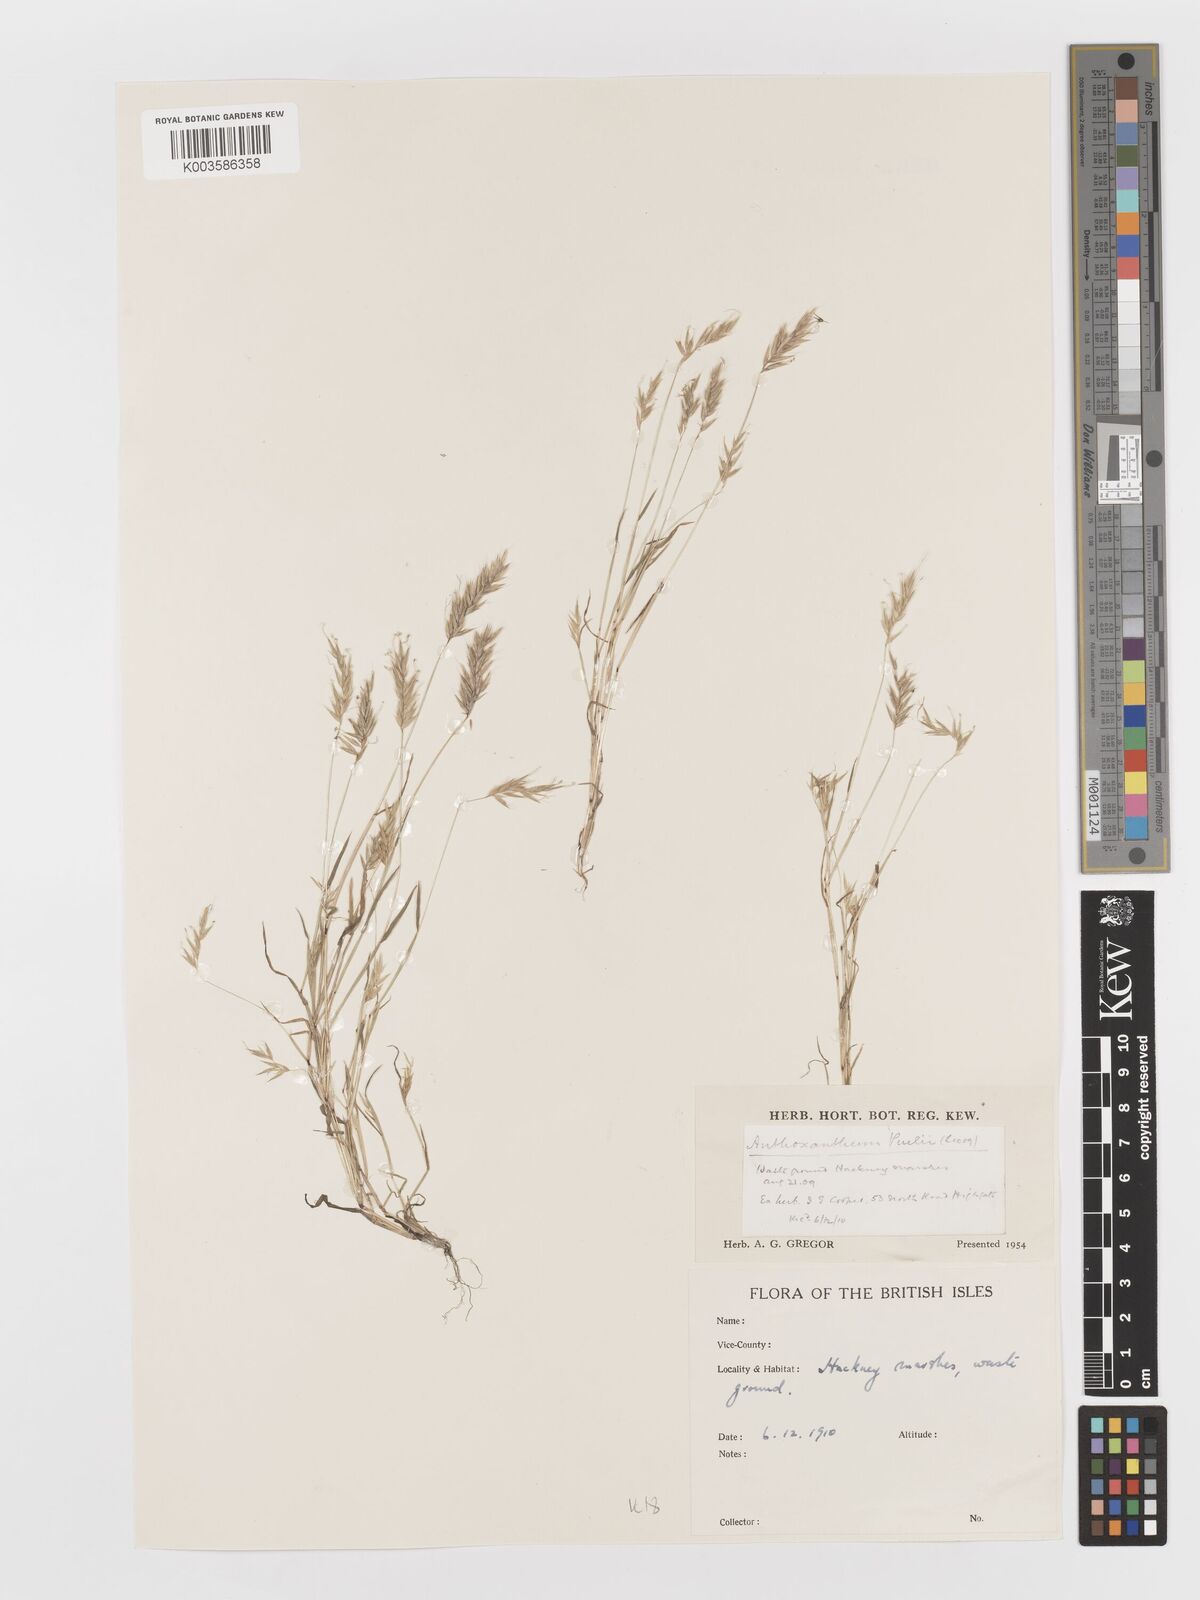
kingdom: Plantae
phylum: Tracheophyta
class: Liliopsida
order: Poales
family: Poaceae
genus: Anthoxanthum
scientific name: Anthoxanthum odoratum
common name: Sweet vernalgrass
